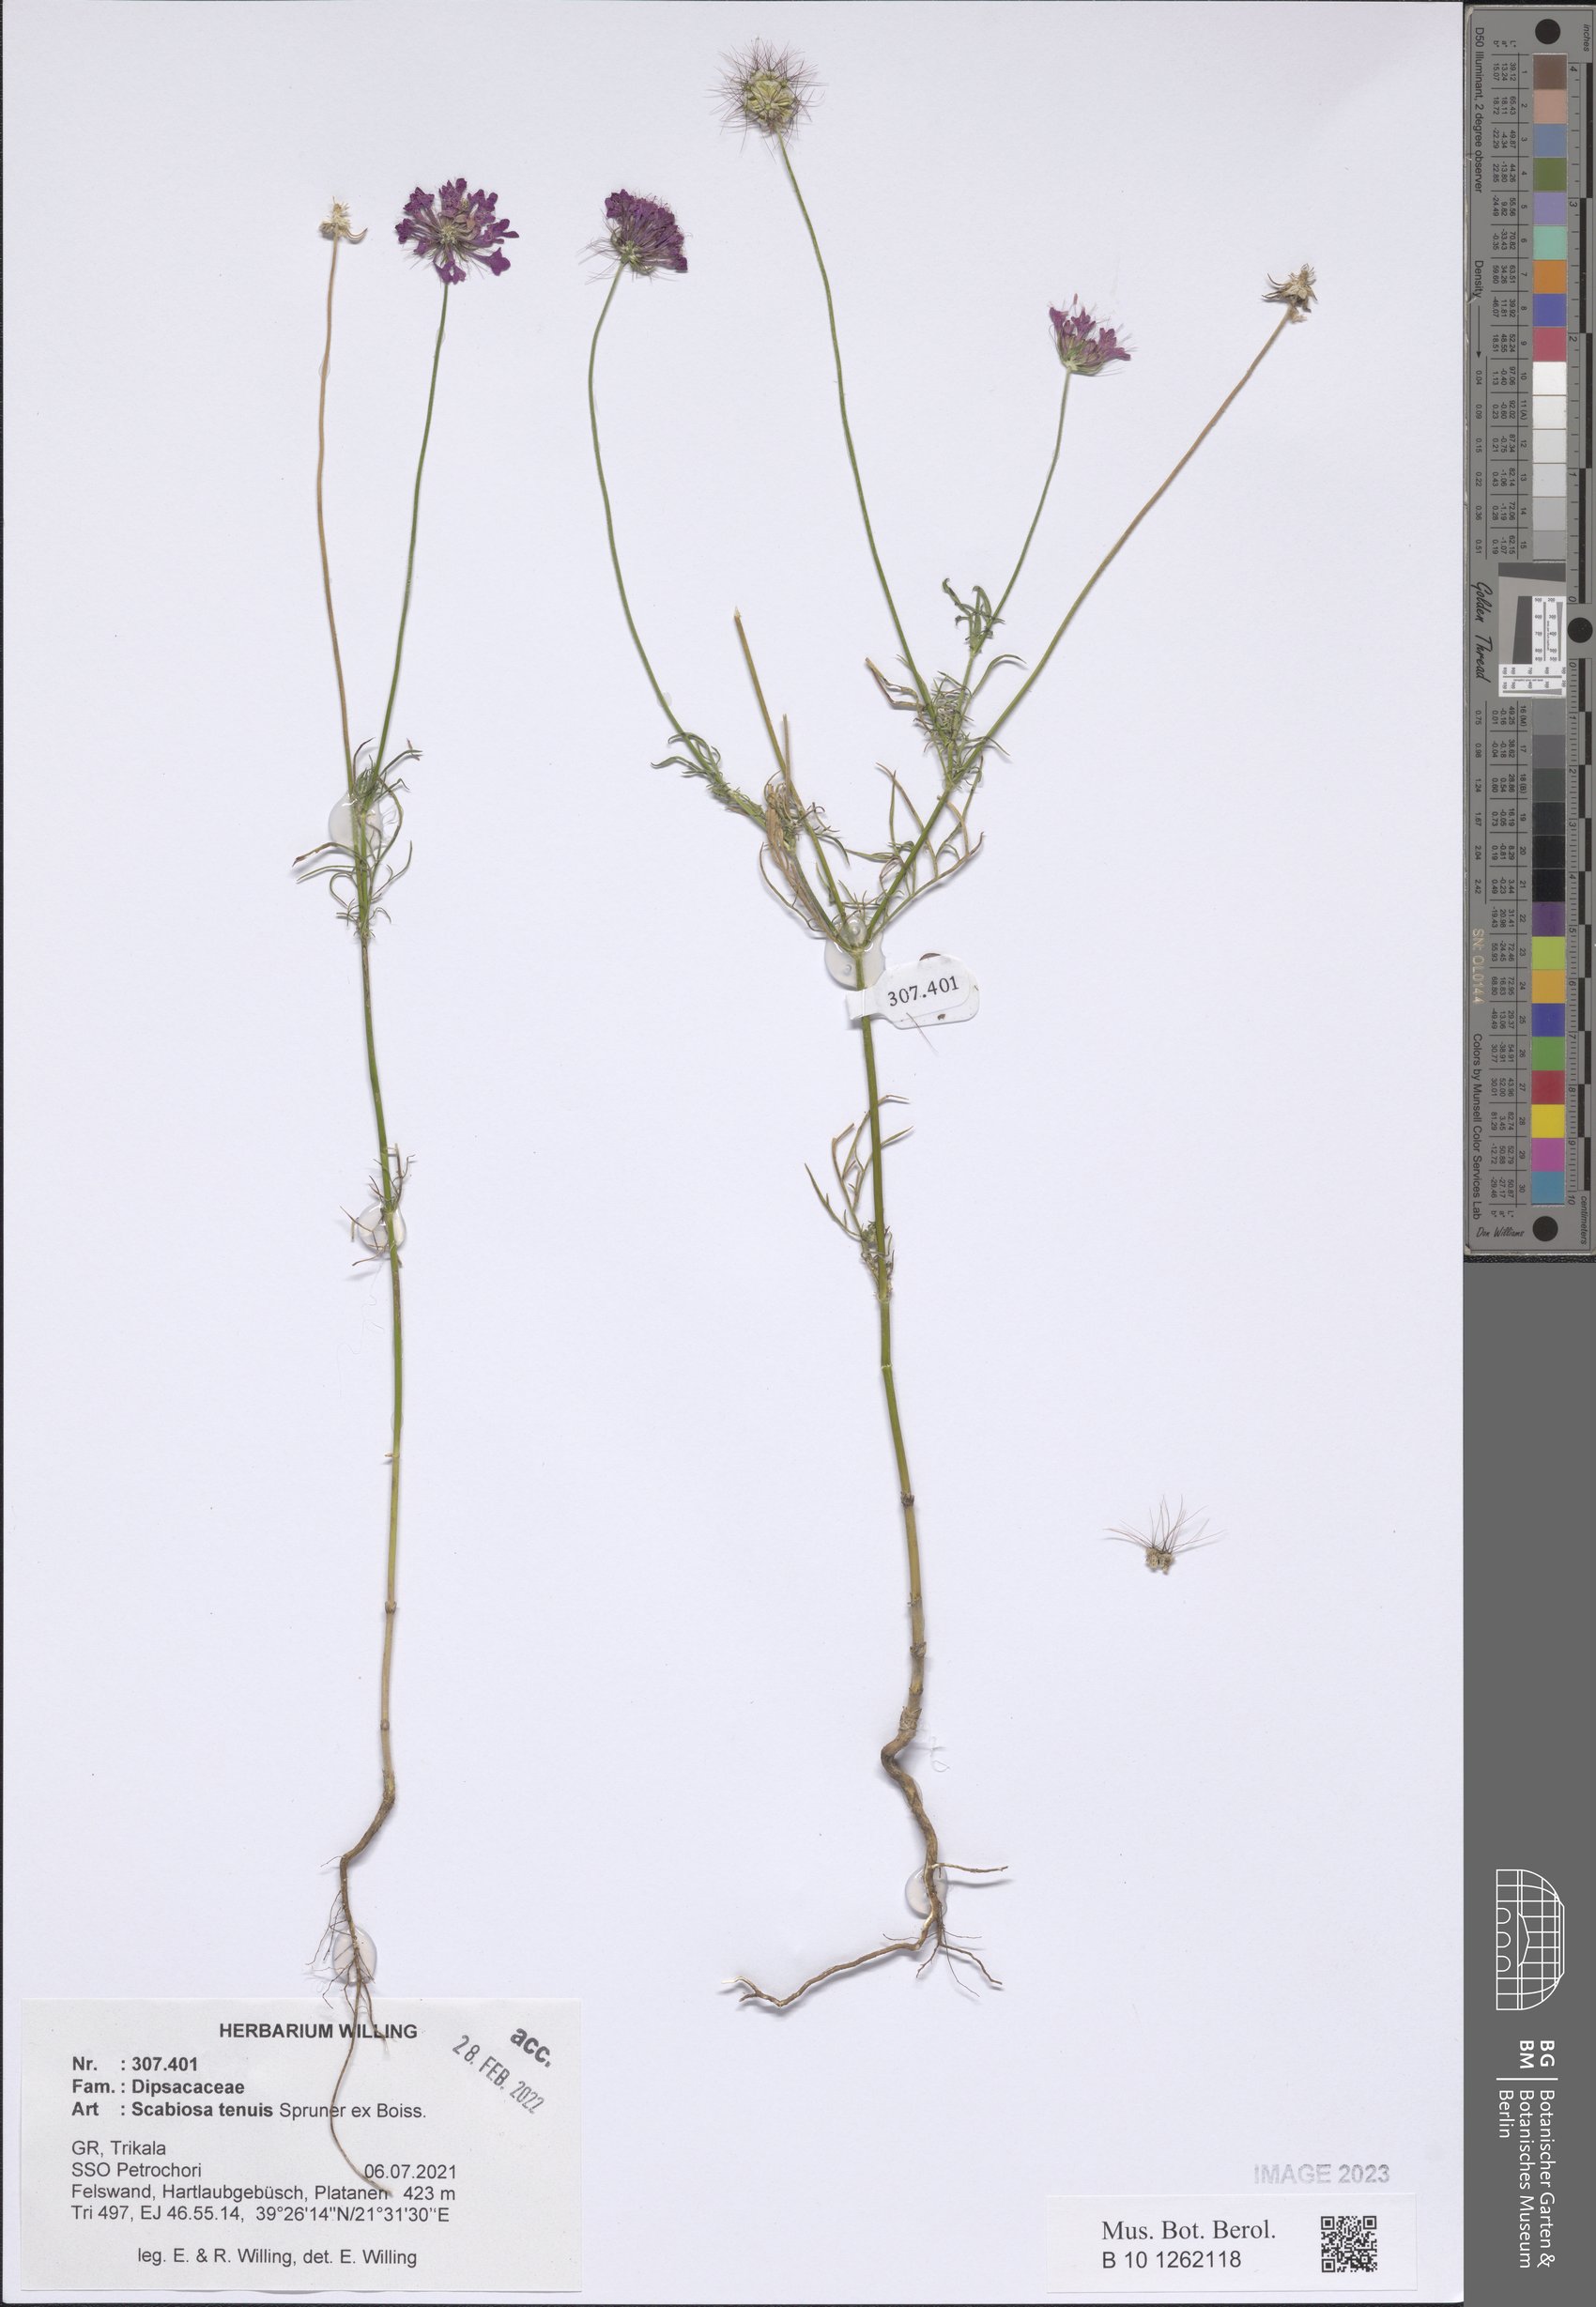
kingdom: Plantae
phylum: Tracheophyta
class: Magnoliopsida
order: Dipsacales
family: Caprifoliaceae
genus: Scabiosa
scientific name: Scabiosa tenuis
